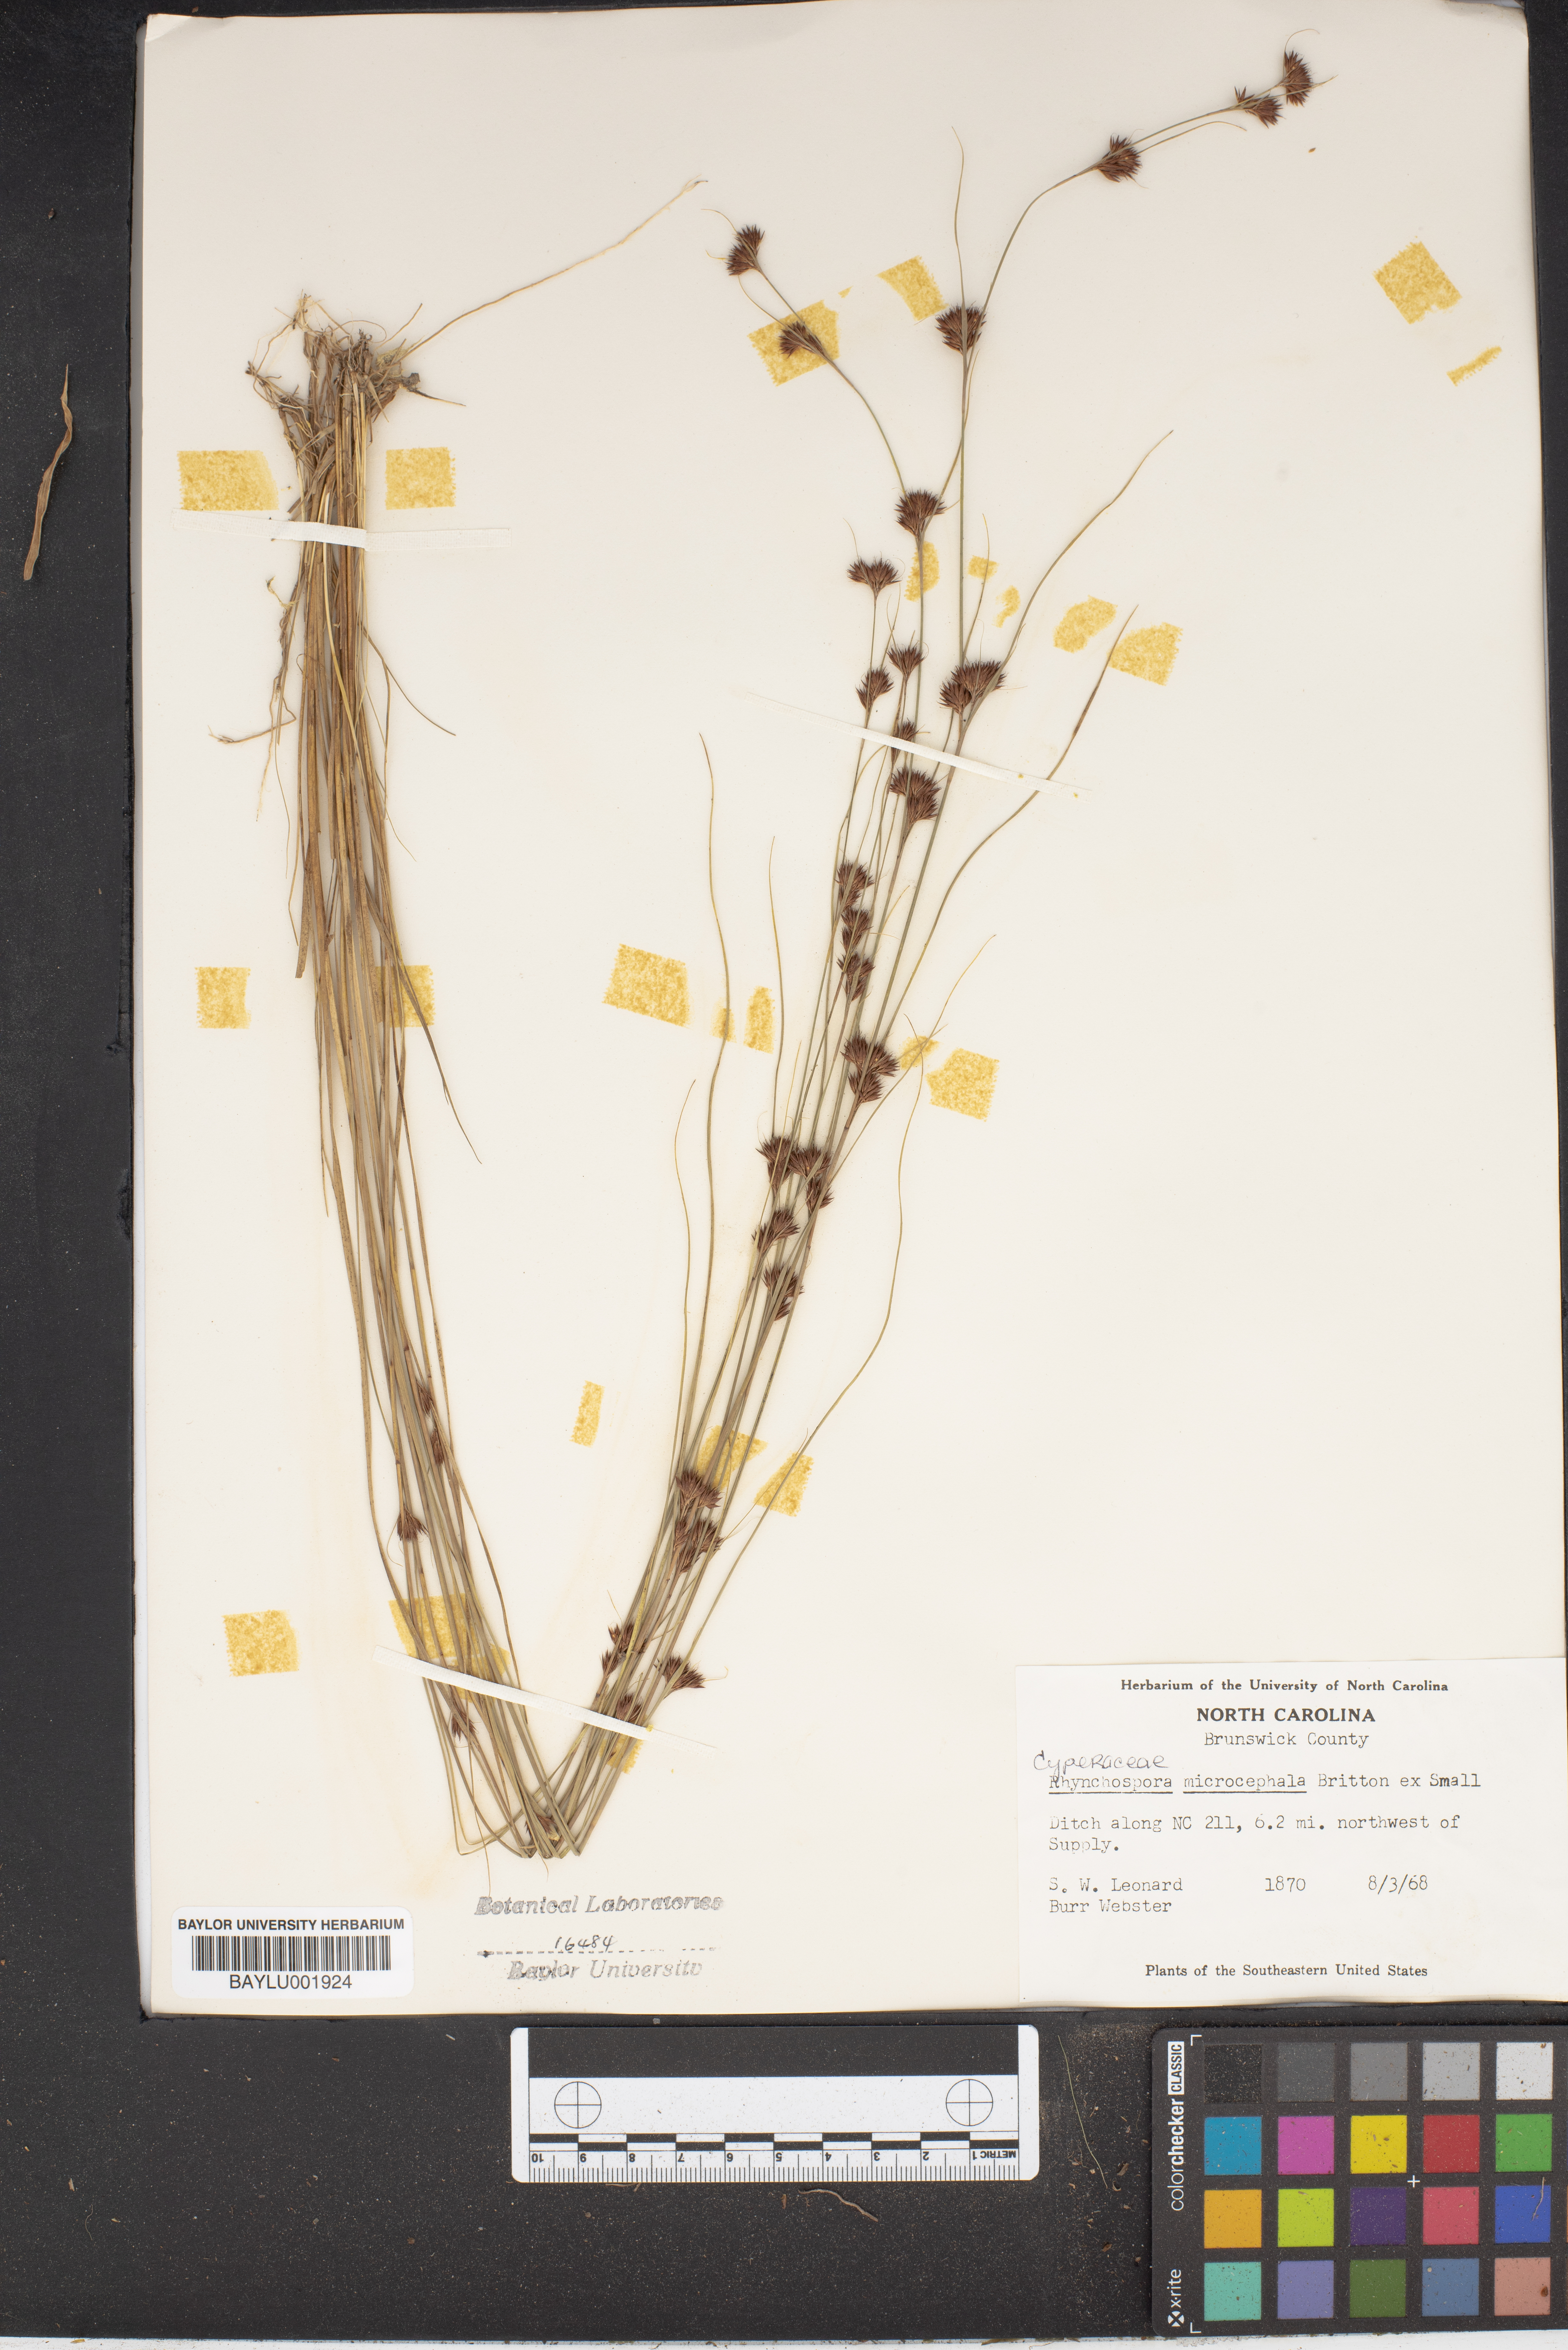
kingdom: Plantae
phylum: Tracheophyta
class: Liliopsida
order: Poales
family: Cyperaceae
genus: Rhynchospora
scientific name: Rhynchospora microcephala
